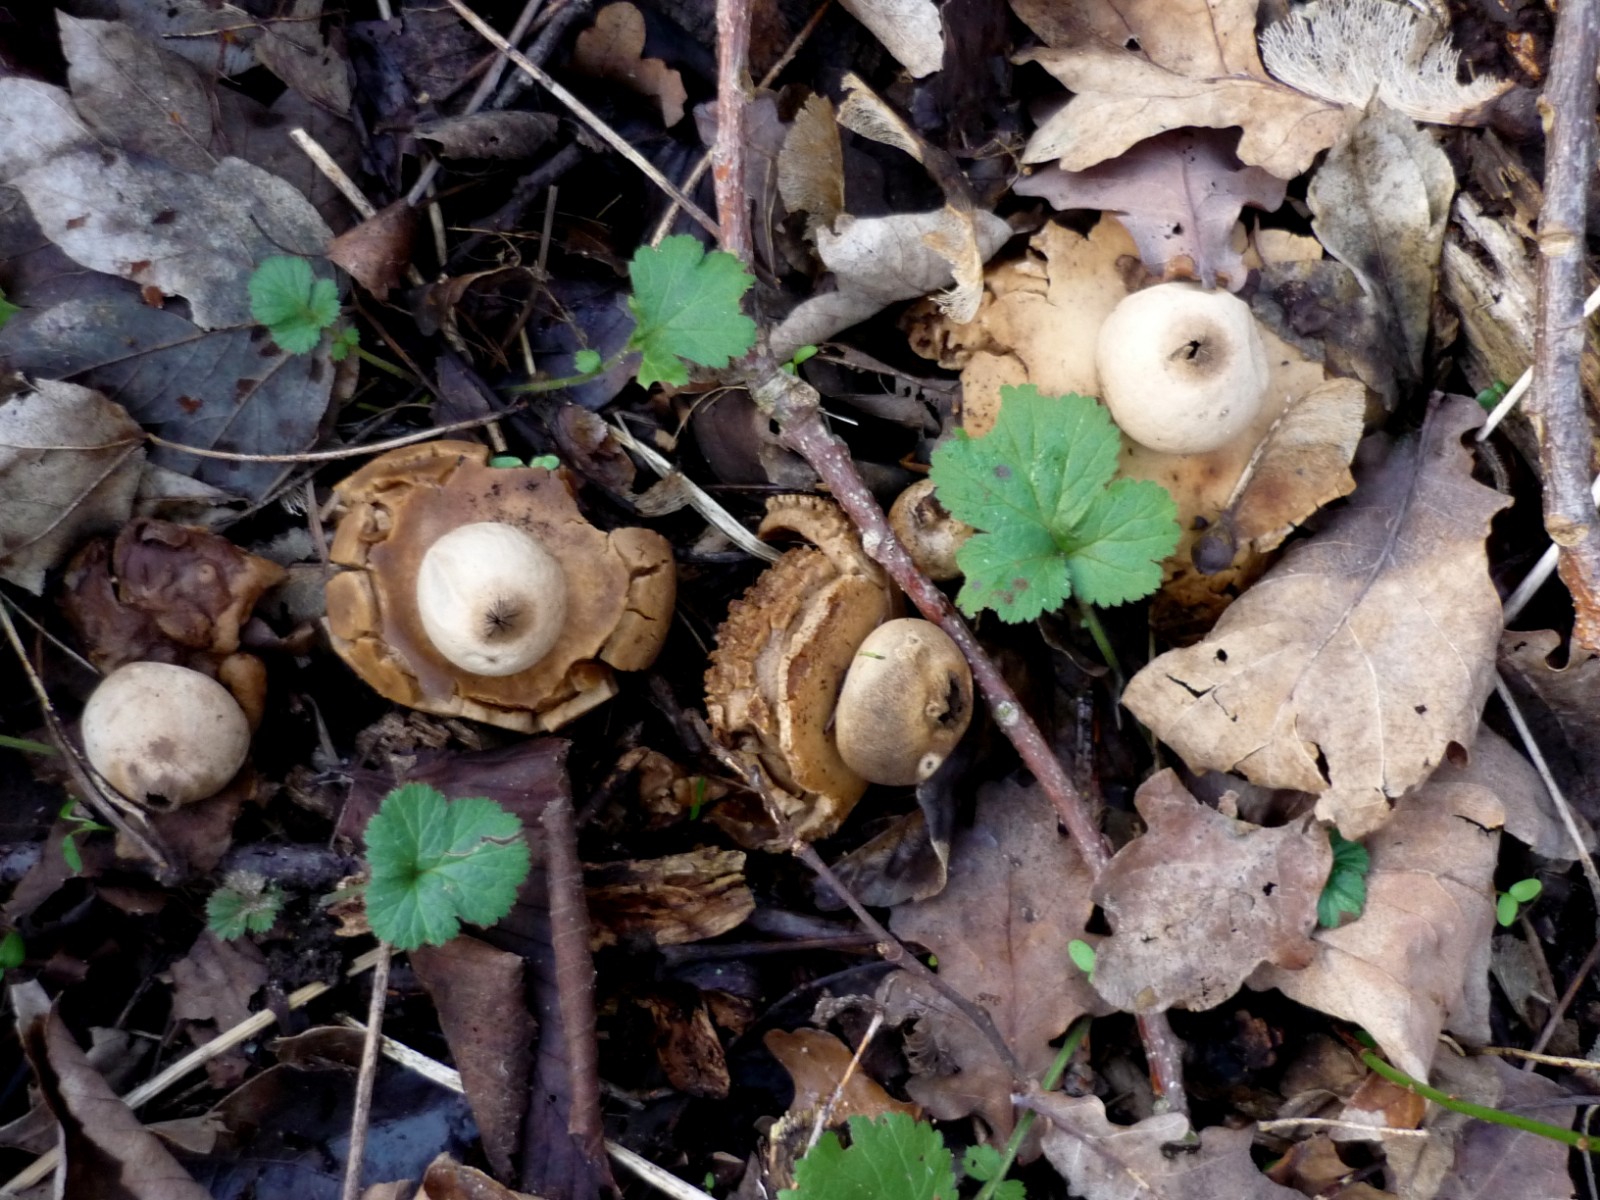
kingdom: Fungi
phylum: Basidiomycota
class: Agaricomycetes
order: Geastrales
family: Geastraceae
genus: Geastrum
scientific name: Geastrum michelianum
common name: kødet stjernebold
